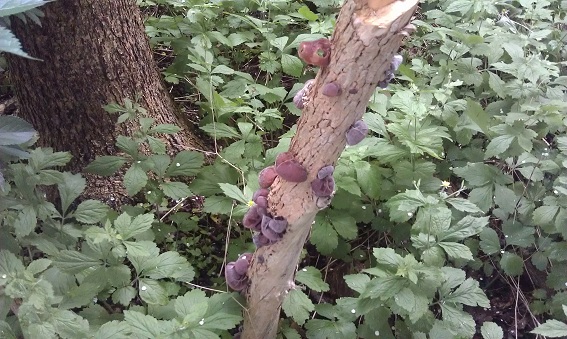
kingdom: Fungi
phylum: Basidiomycota
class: Agaricomycetes
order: Auriculariales
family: Auriculariaceae
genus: Auricularia
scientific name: Auricularia auricula-judae
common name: almindelig judasøre
